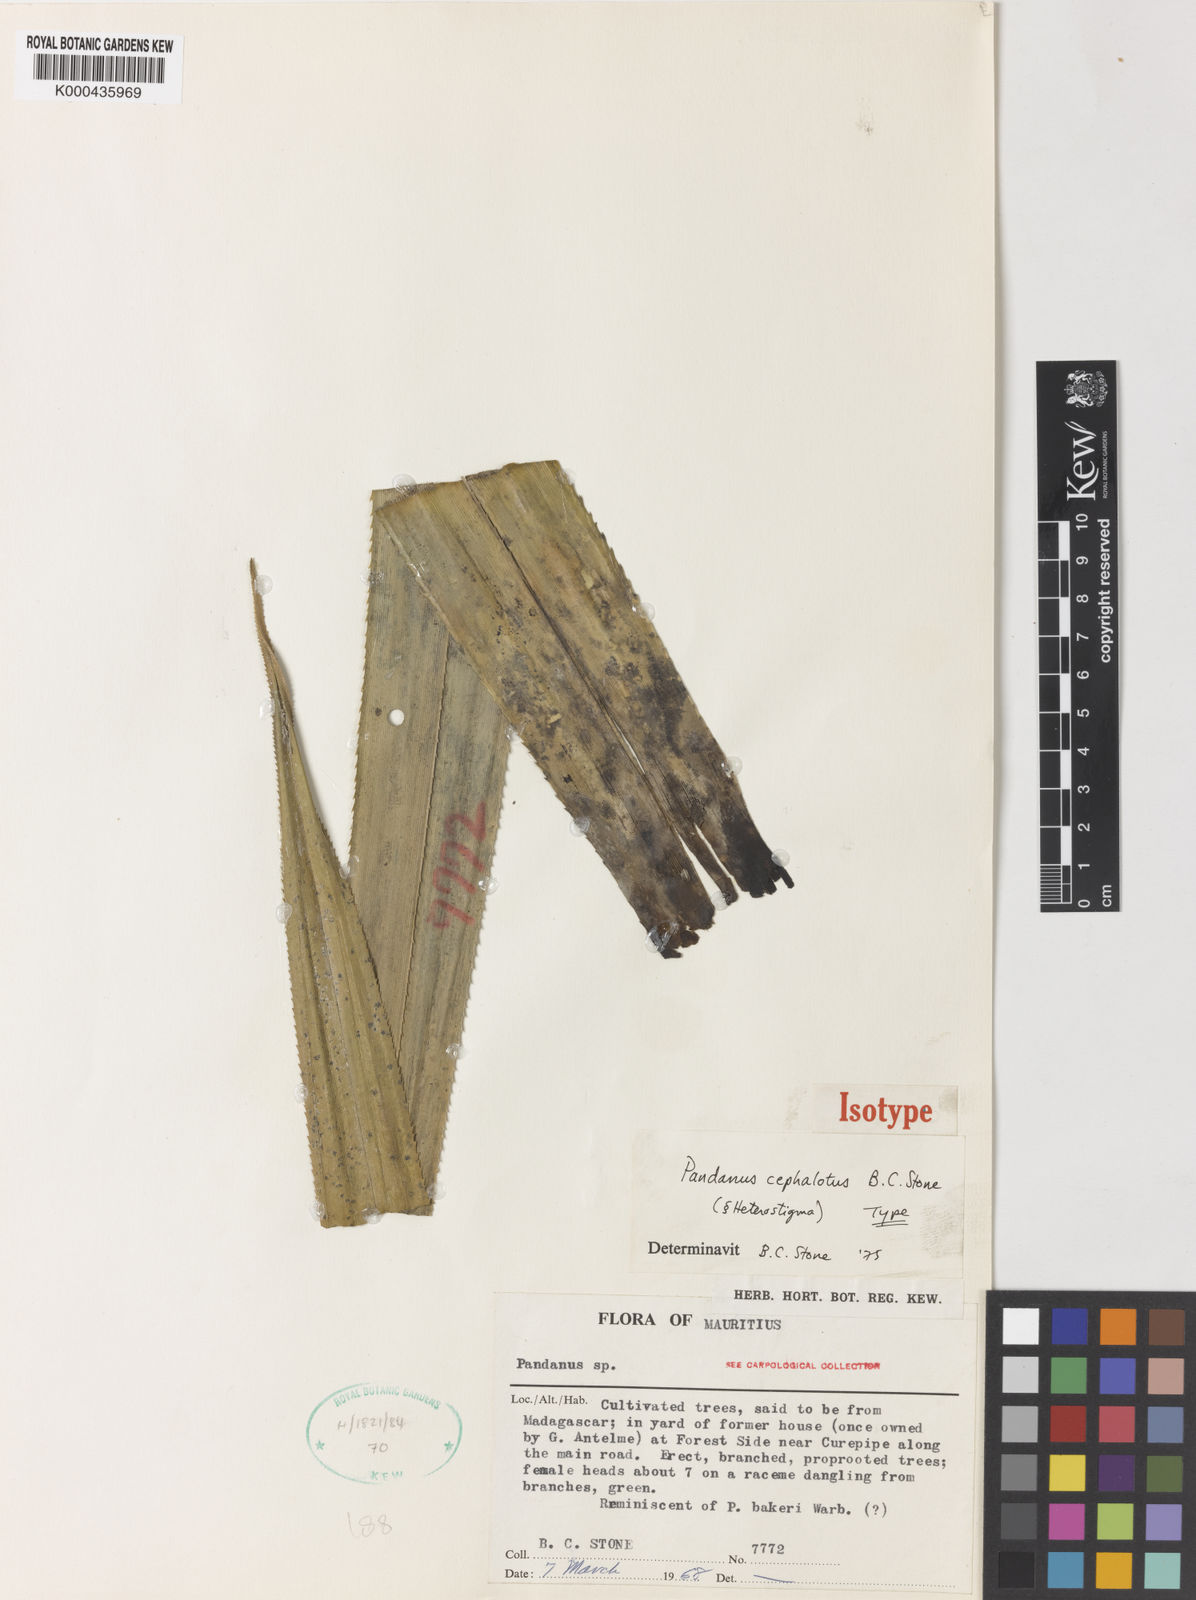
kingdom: Plantae
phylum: Tracheophyta
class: Liliopsida
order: Pandanales
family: Pandanaceae
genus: Pandanus
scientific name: Pandanus
